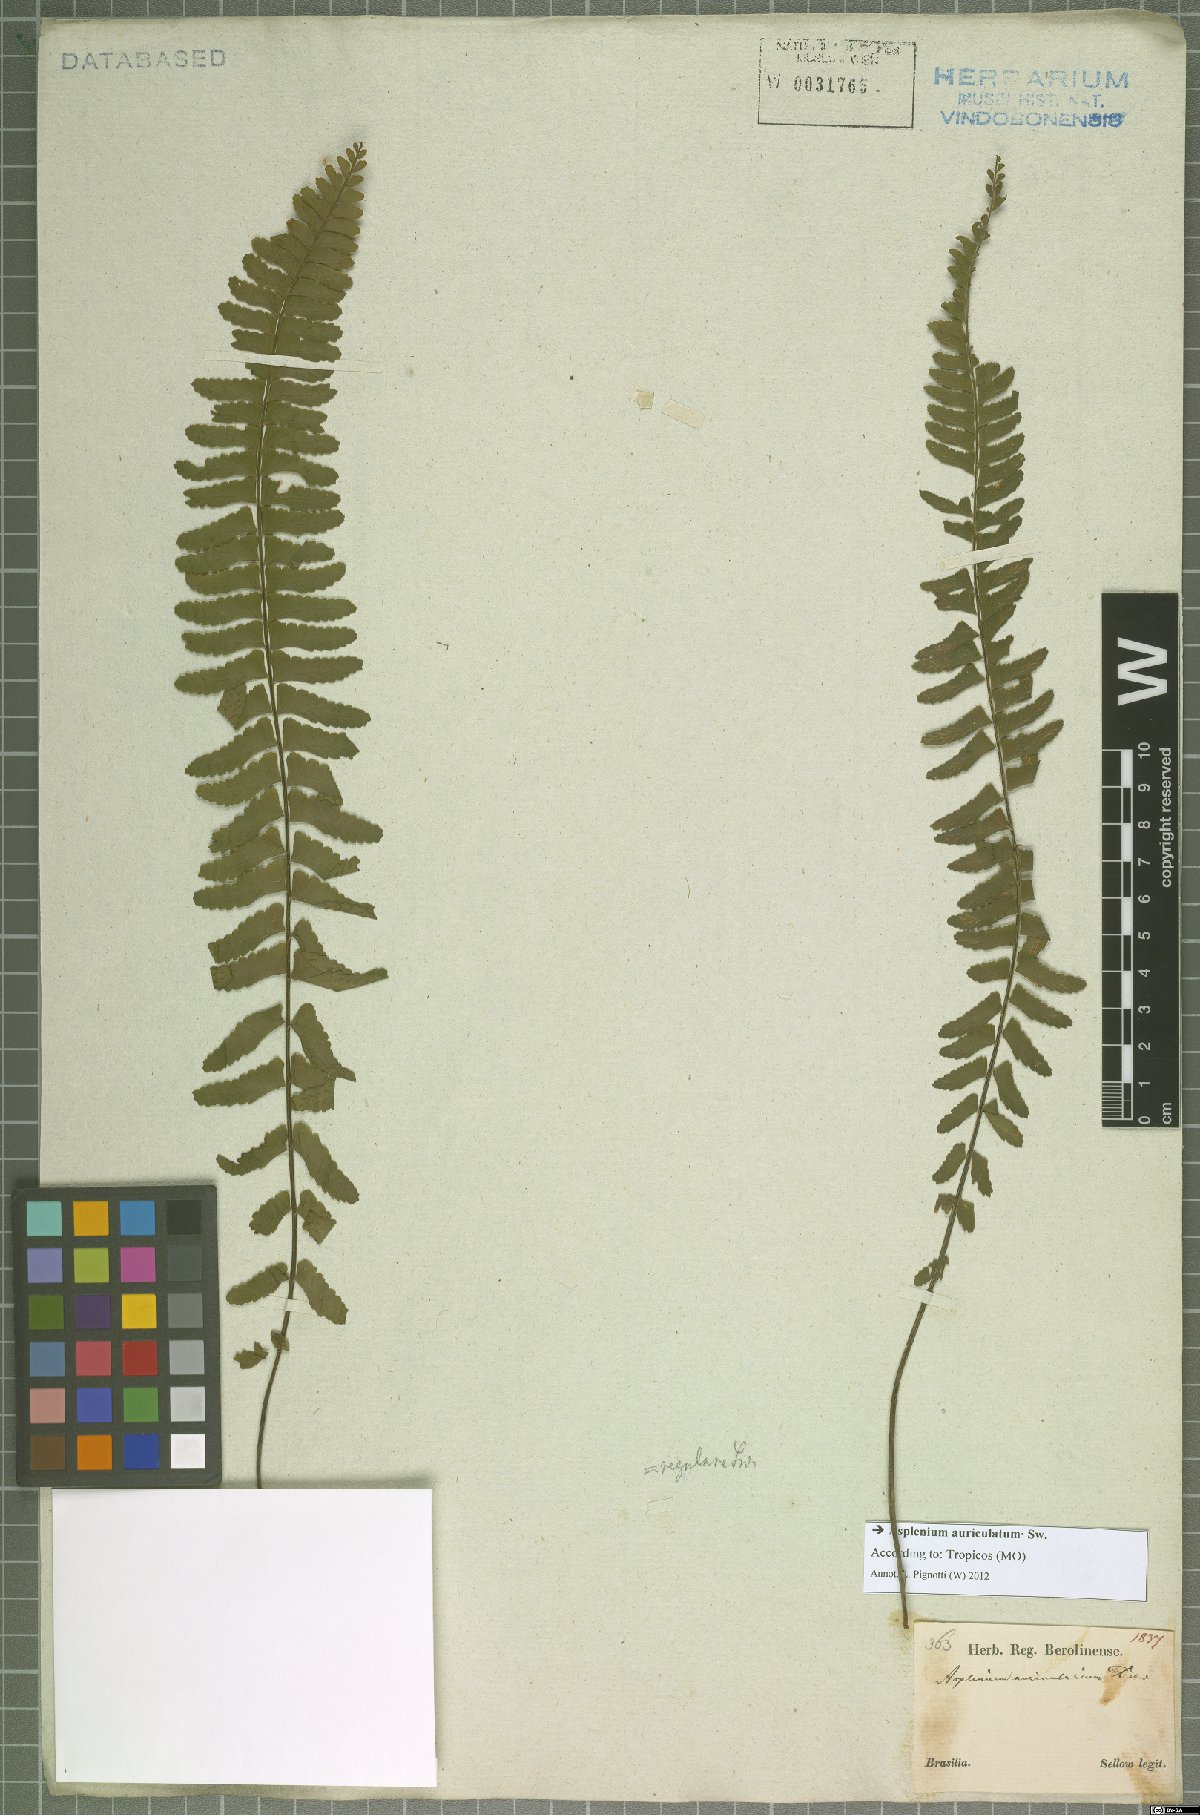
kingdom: Plantae
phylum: Tracheophyta
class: Polypodiopsida
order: Polypodiales
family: Aspleniaceae
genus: Asplenium
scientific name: Asplenium auriculatum
